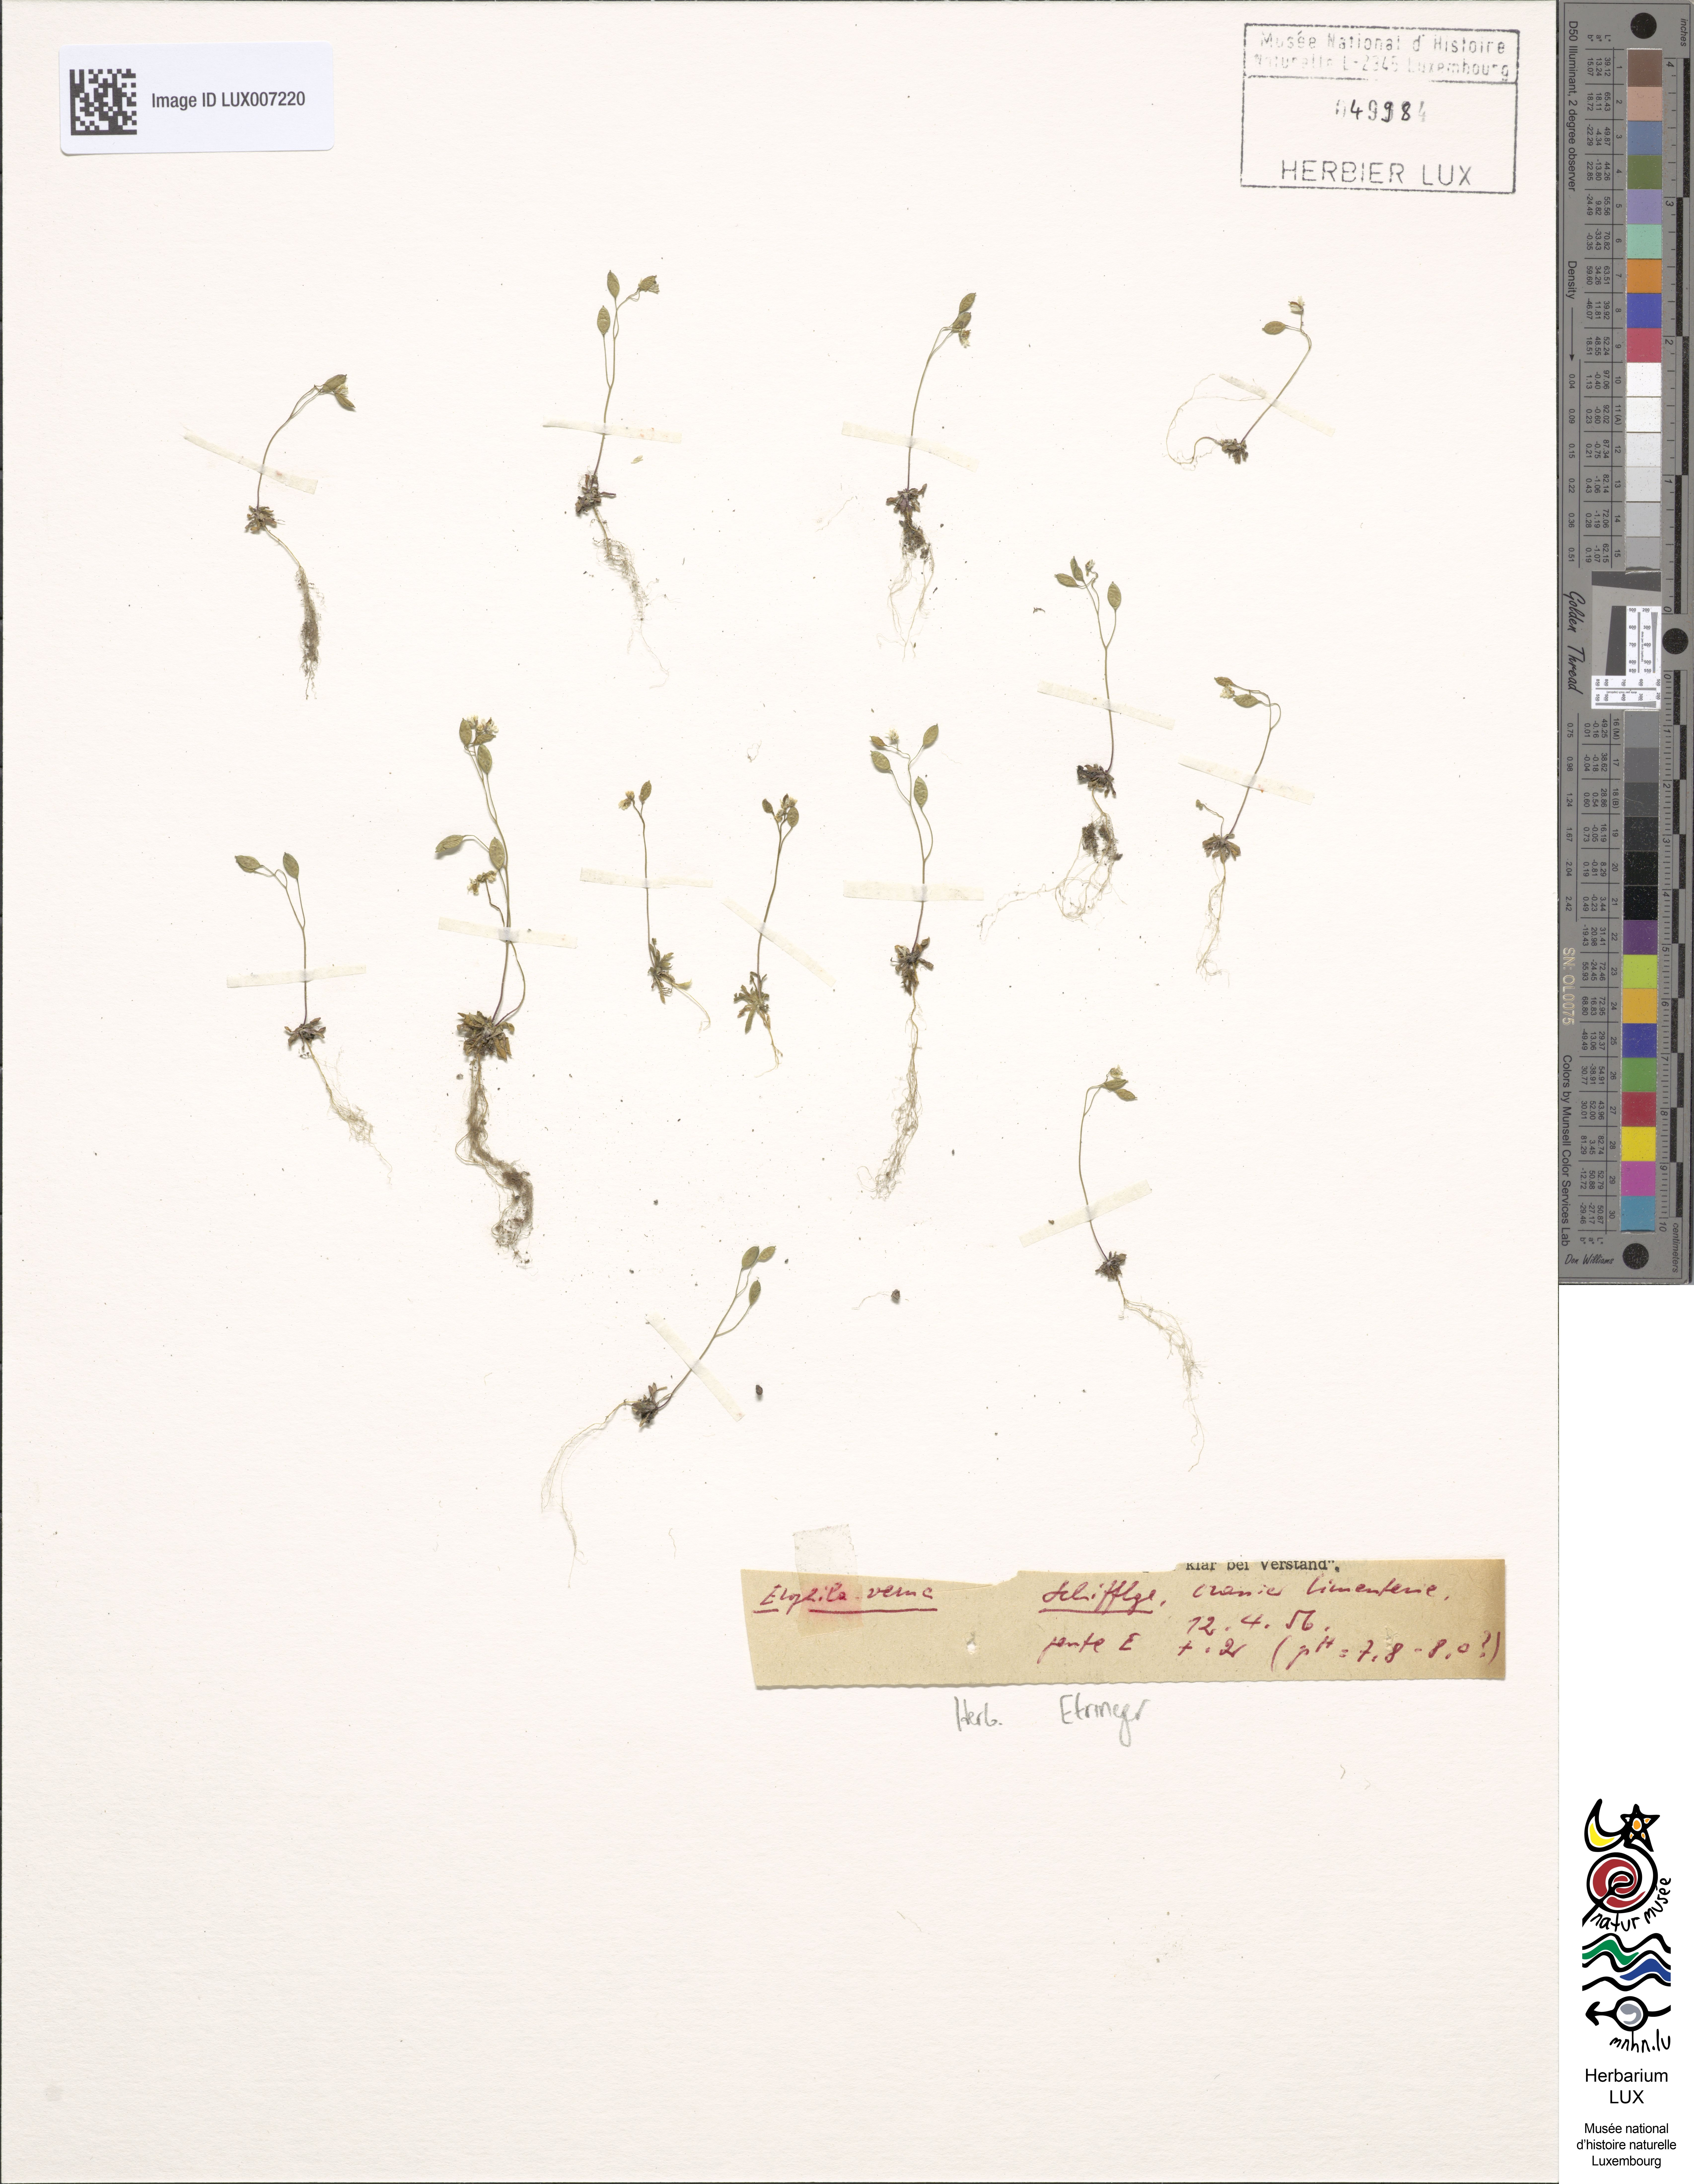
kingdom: Plantae
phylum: Tracheophyta
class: Magnoliopsida
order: Brassicales
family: Brassicaceae
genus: Draba
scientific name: Draba verna
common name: Spring draba
